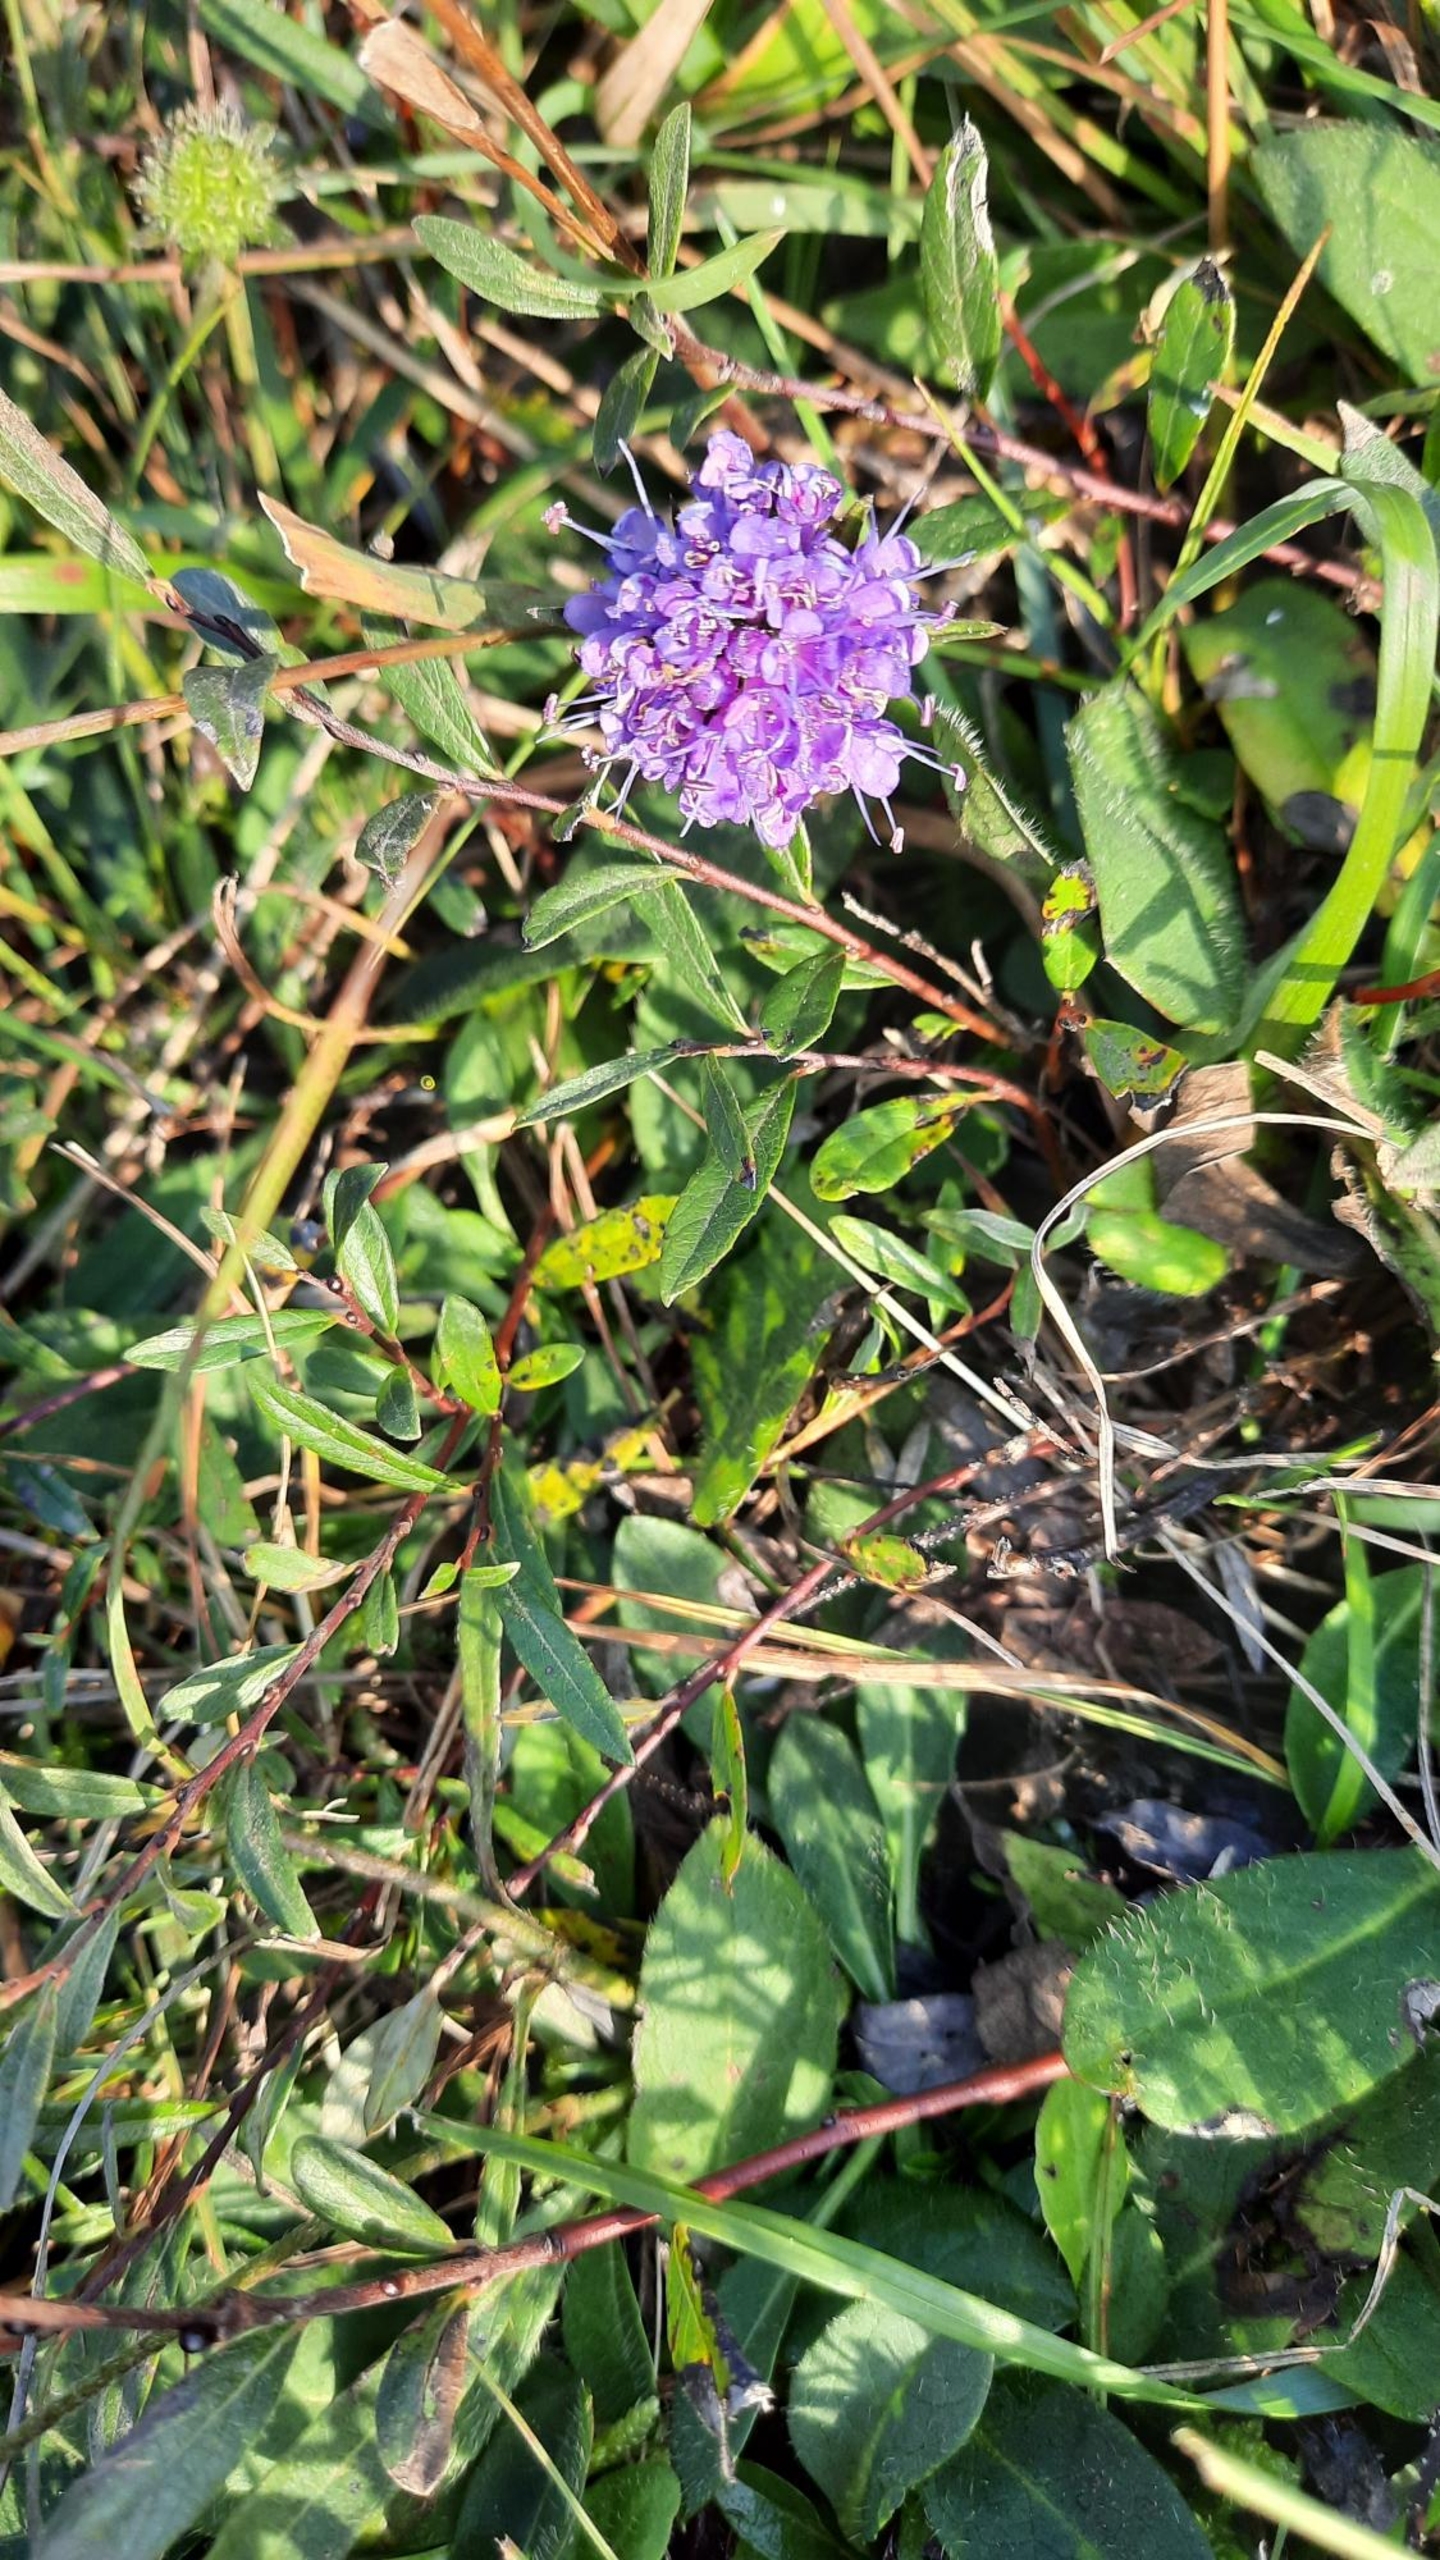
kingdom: Plantae
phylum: Tracheophyta
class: Magnoliopsida
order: Dipsacales
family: Caprifoliaceae
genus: Succisa
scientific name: Succisa pratensis
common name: Djævelsbid
